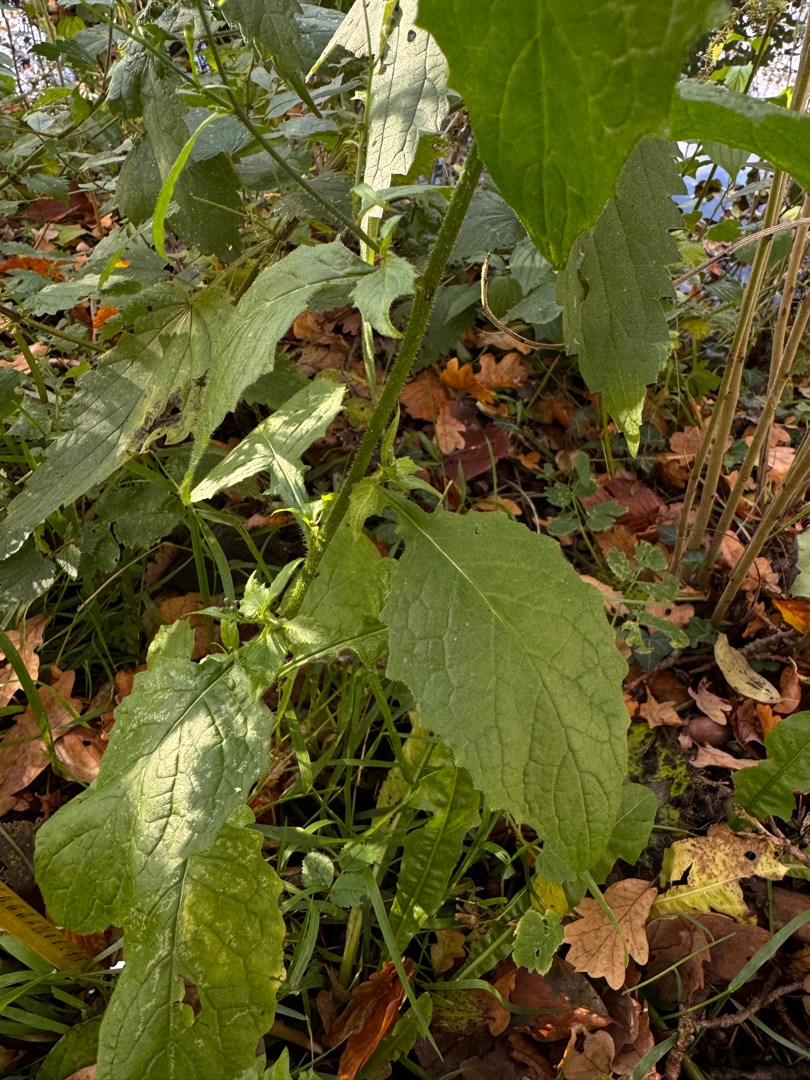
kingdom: Plantae
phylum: Tracheophyta
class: Magnoliopsida
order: Asterales
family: Asteraceae
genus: Lapsana
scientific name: Lapsana communis
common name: Haremad
